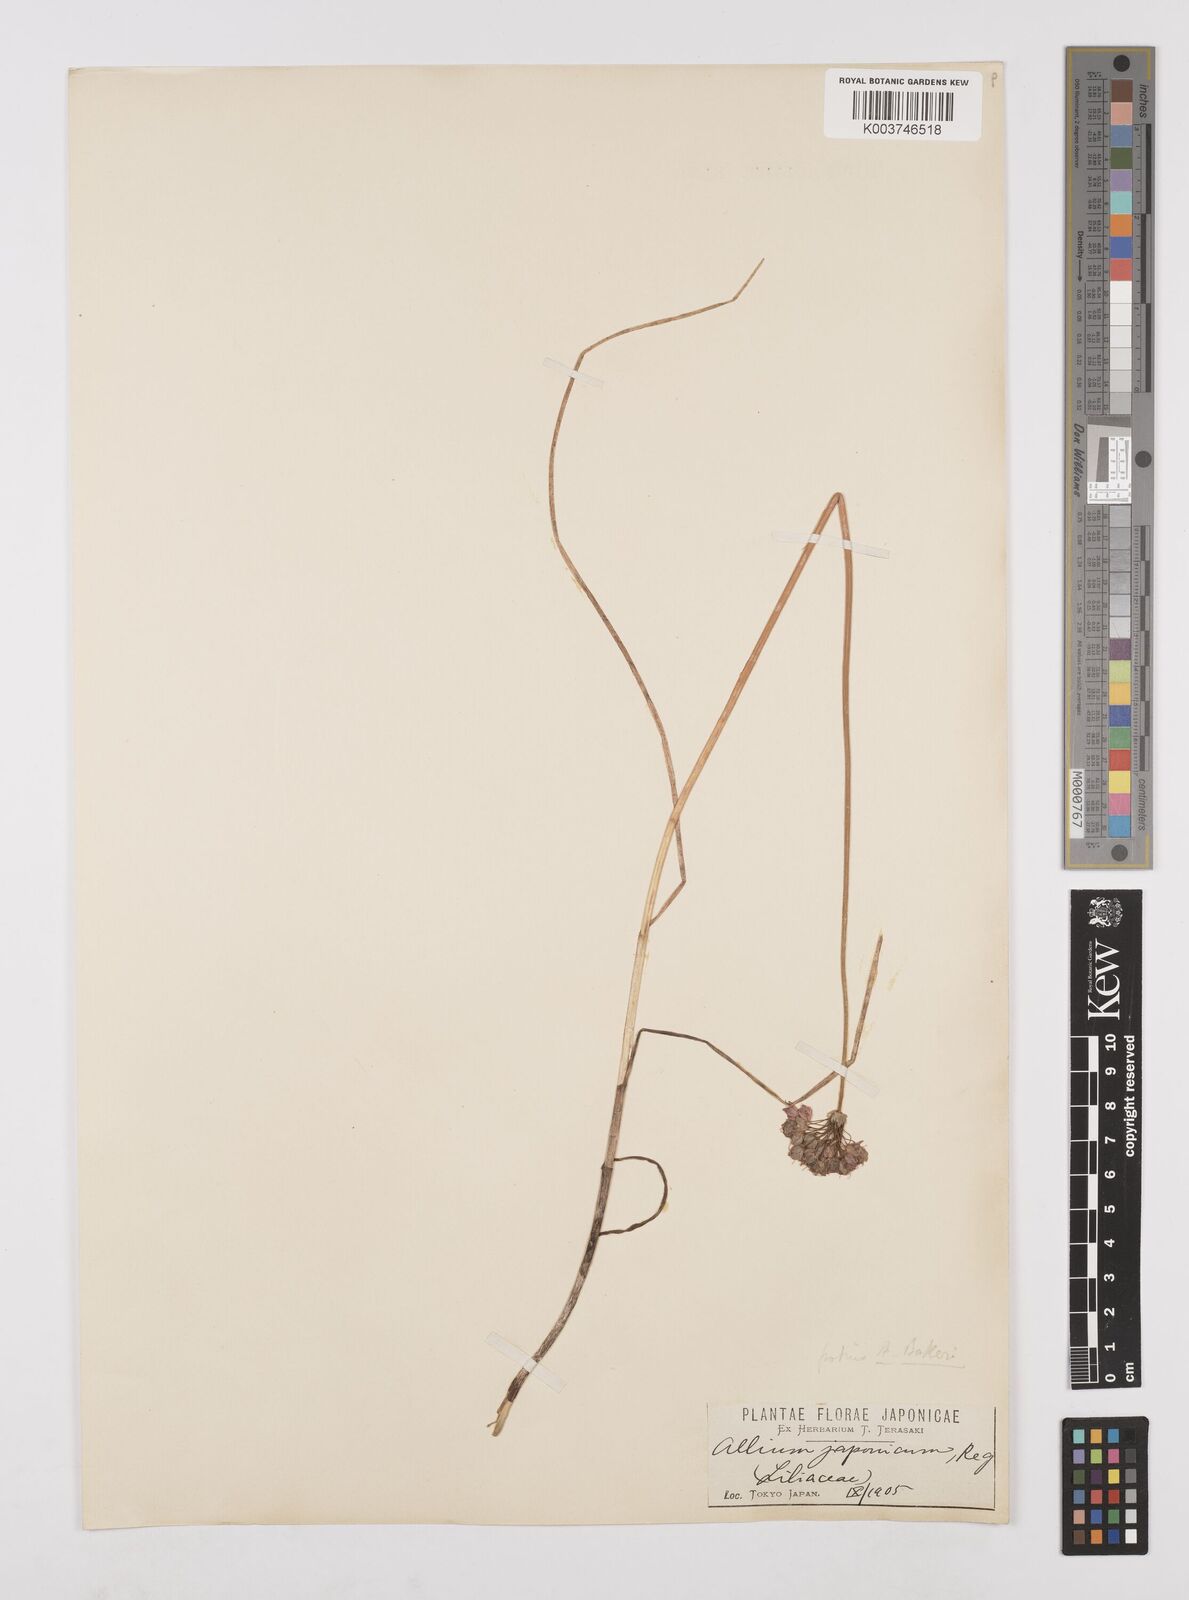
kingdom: Plantae
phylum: Tracheophyta
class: Liliopsida
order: Asparagales
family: Amaryllidaceae
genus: Allium
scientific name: Allium chinense
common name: Japanese scallion
